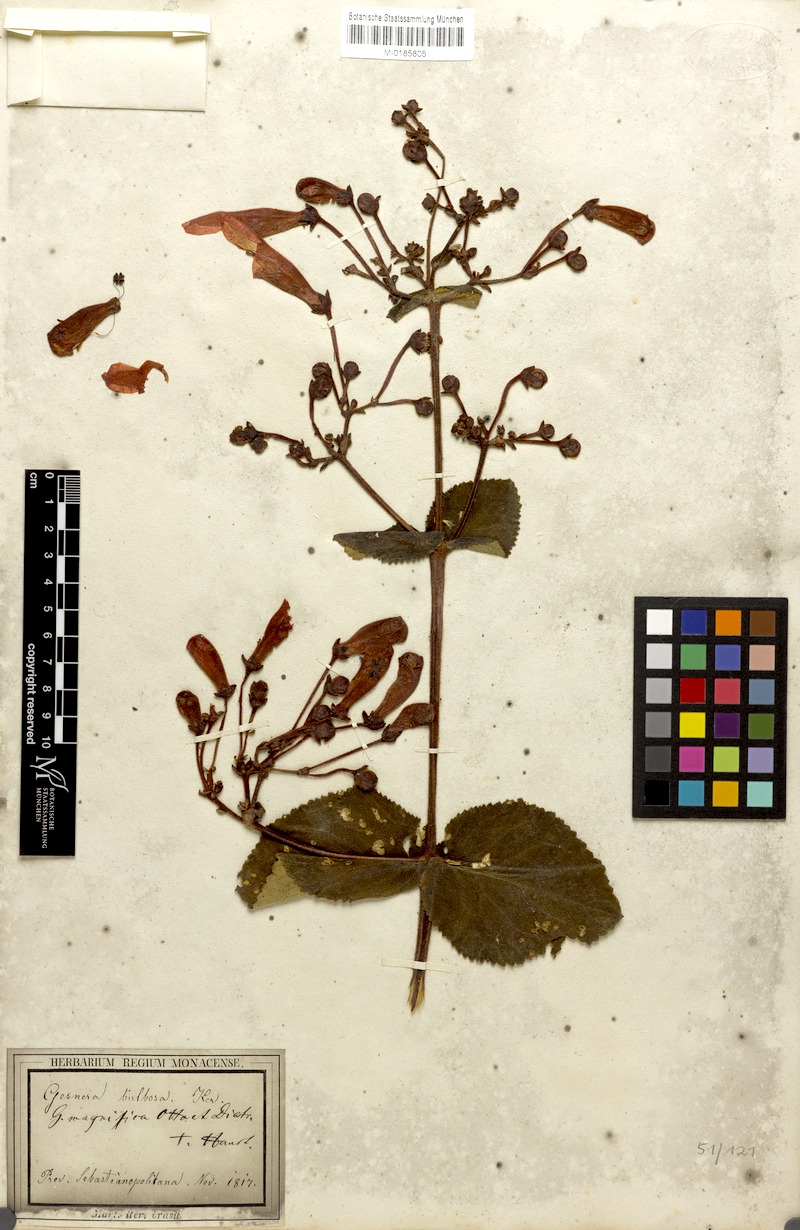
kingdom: Plantae
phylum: Tracheophyta
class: Magnoliopsida
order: Lamiales
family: Gesneriaceae
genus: Sinningia
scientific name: Sinningia magnifica
